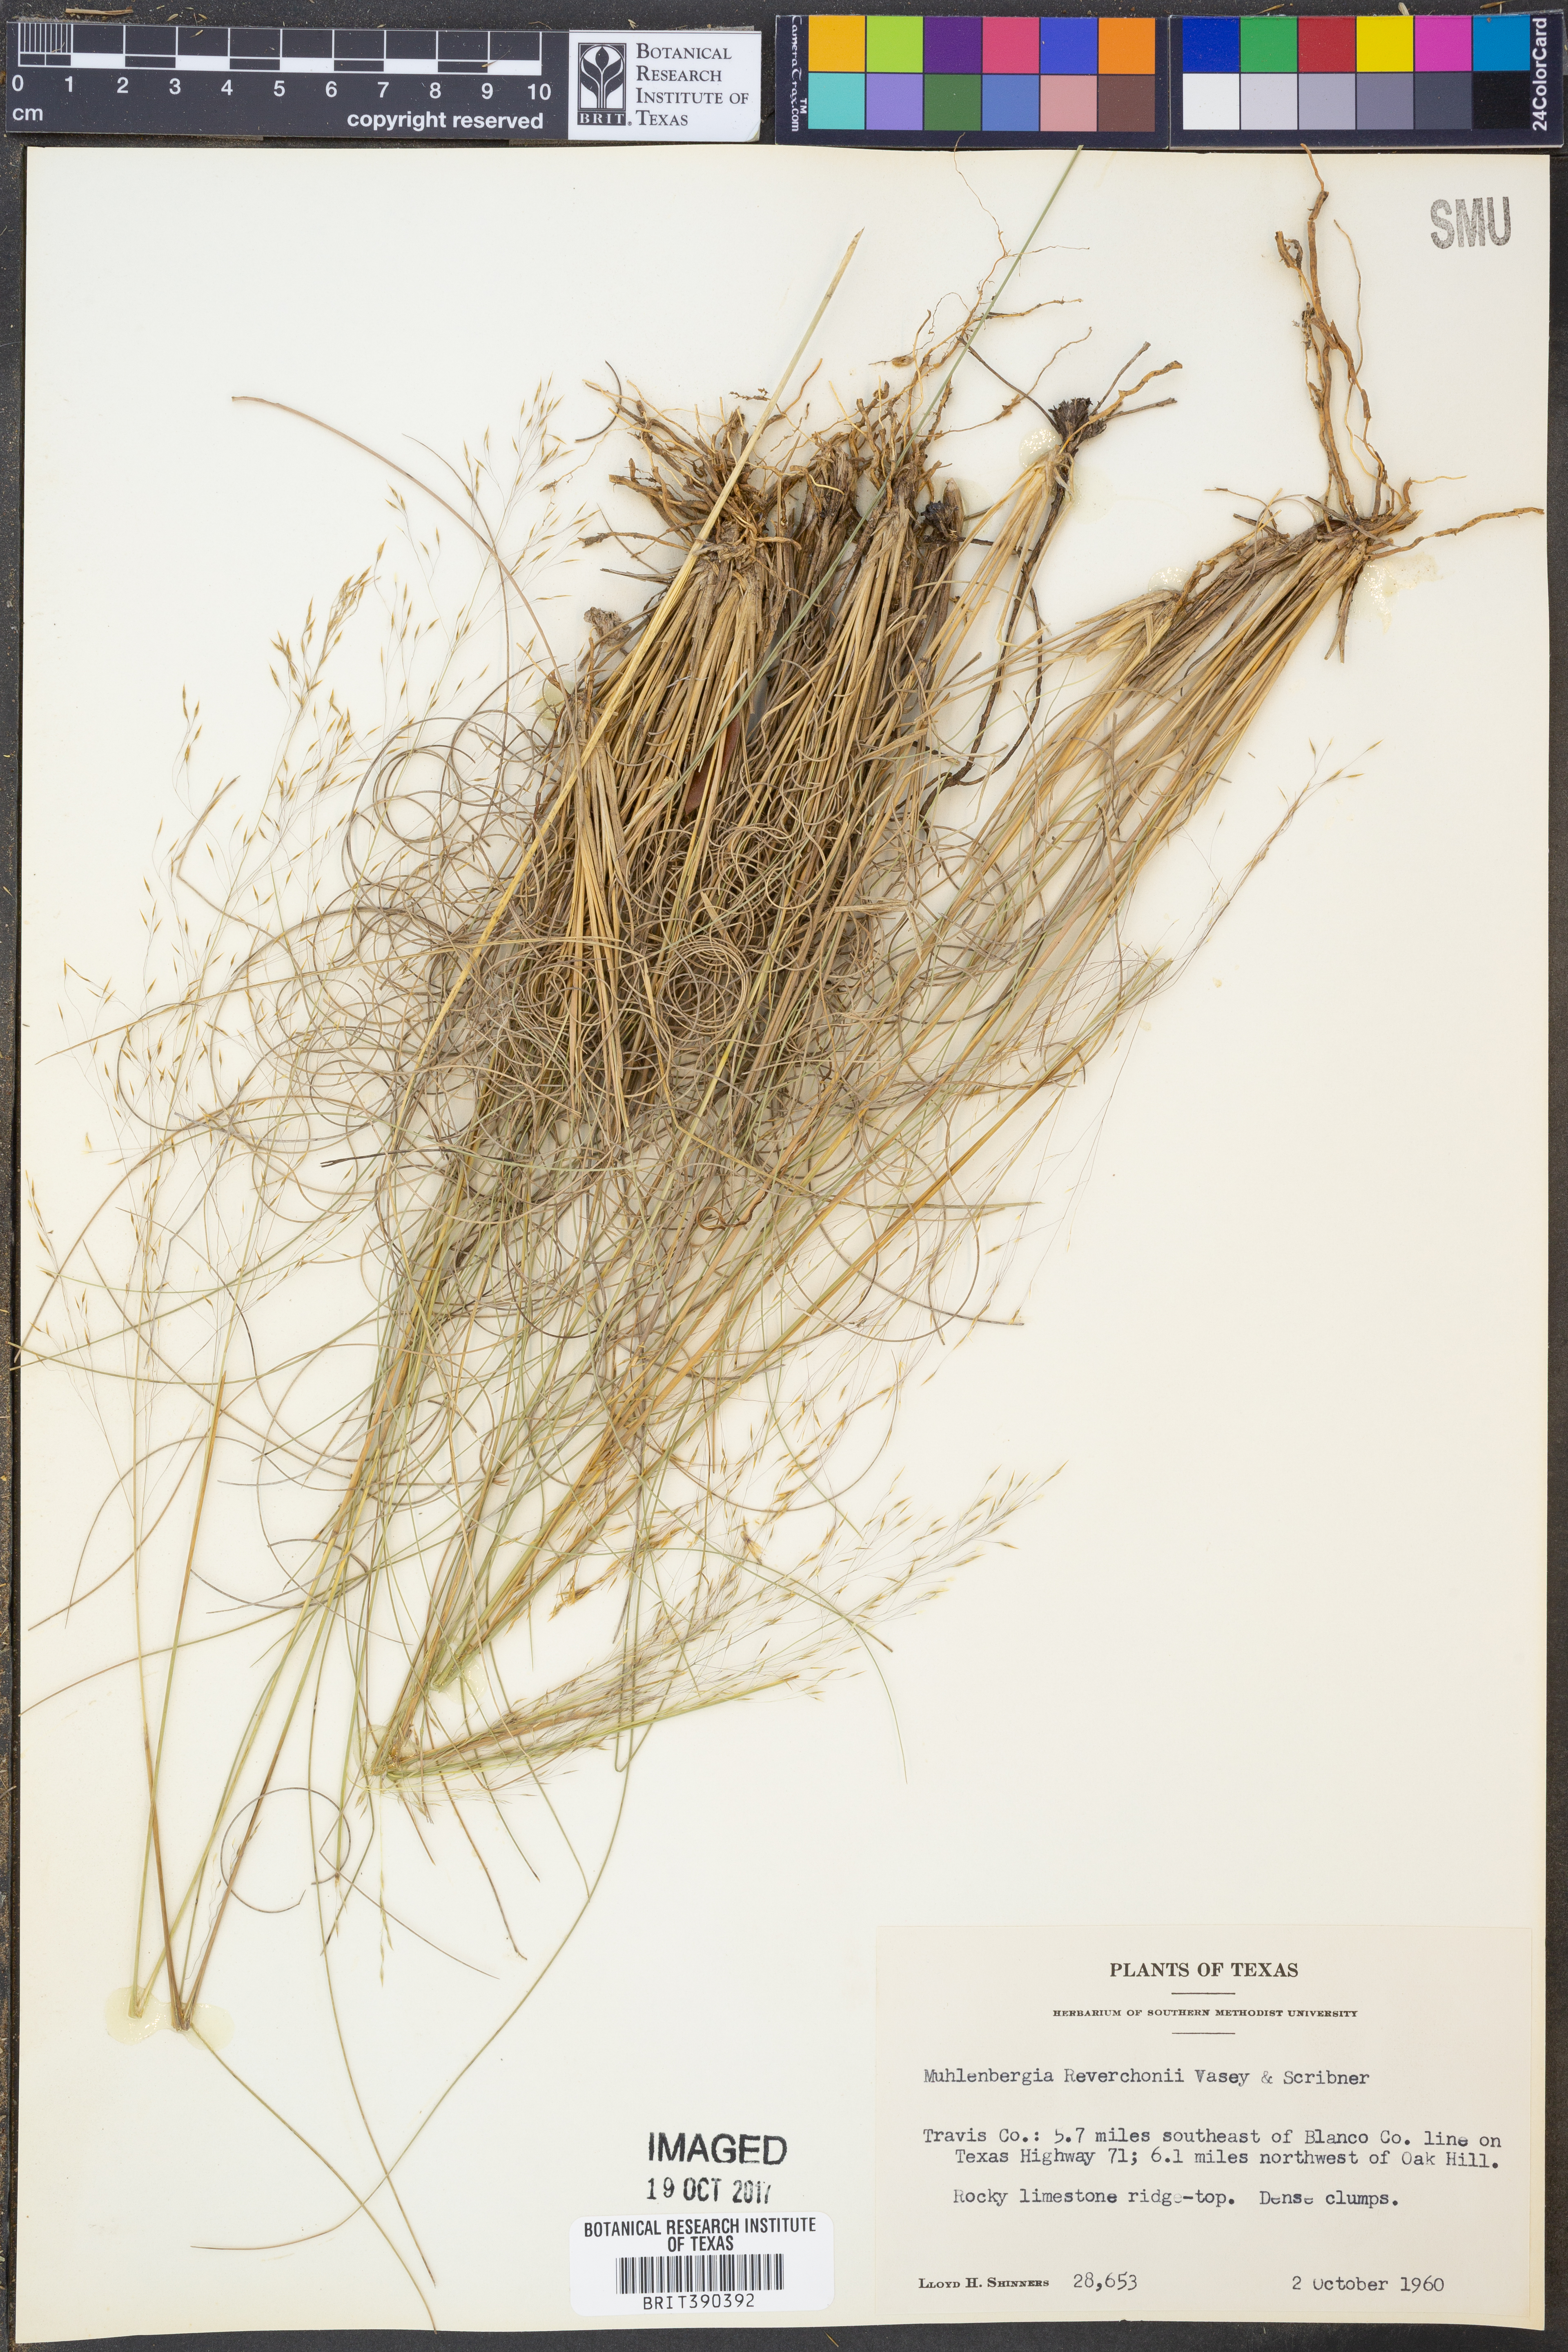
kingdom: Plantae
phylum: Tracheophyta
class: Liliopsida
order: Poales
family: Poaceae
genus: Muhlenbergia
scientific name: Muhlenbergia reverchonii
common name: Seep muhly
